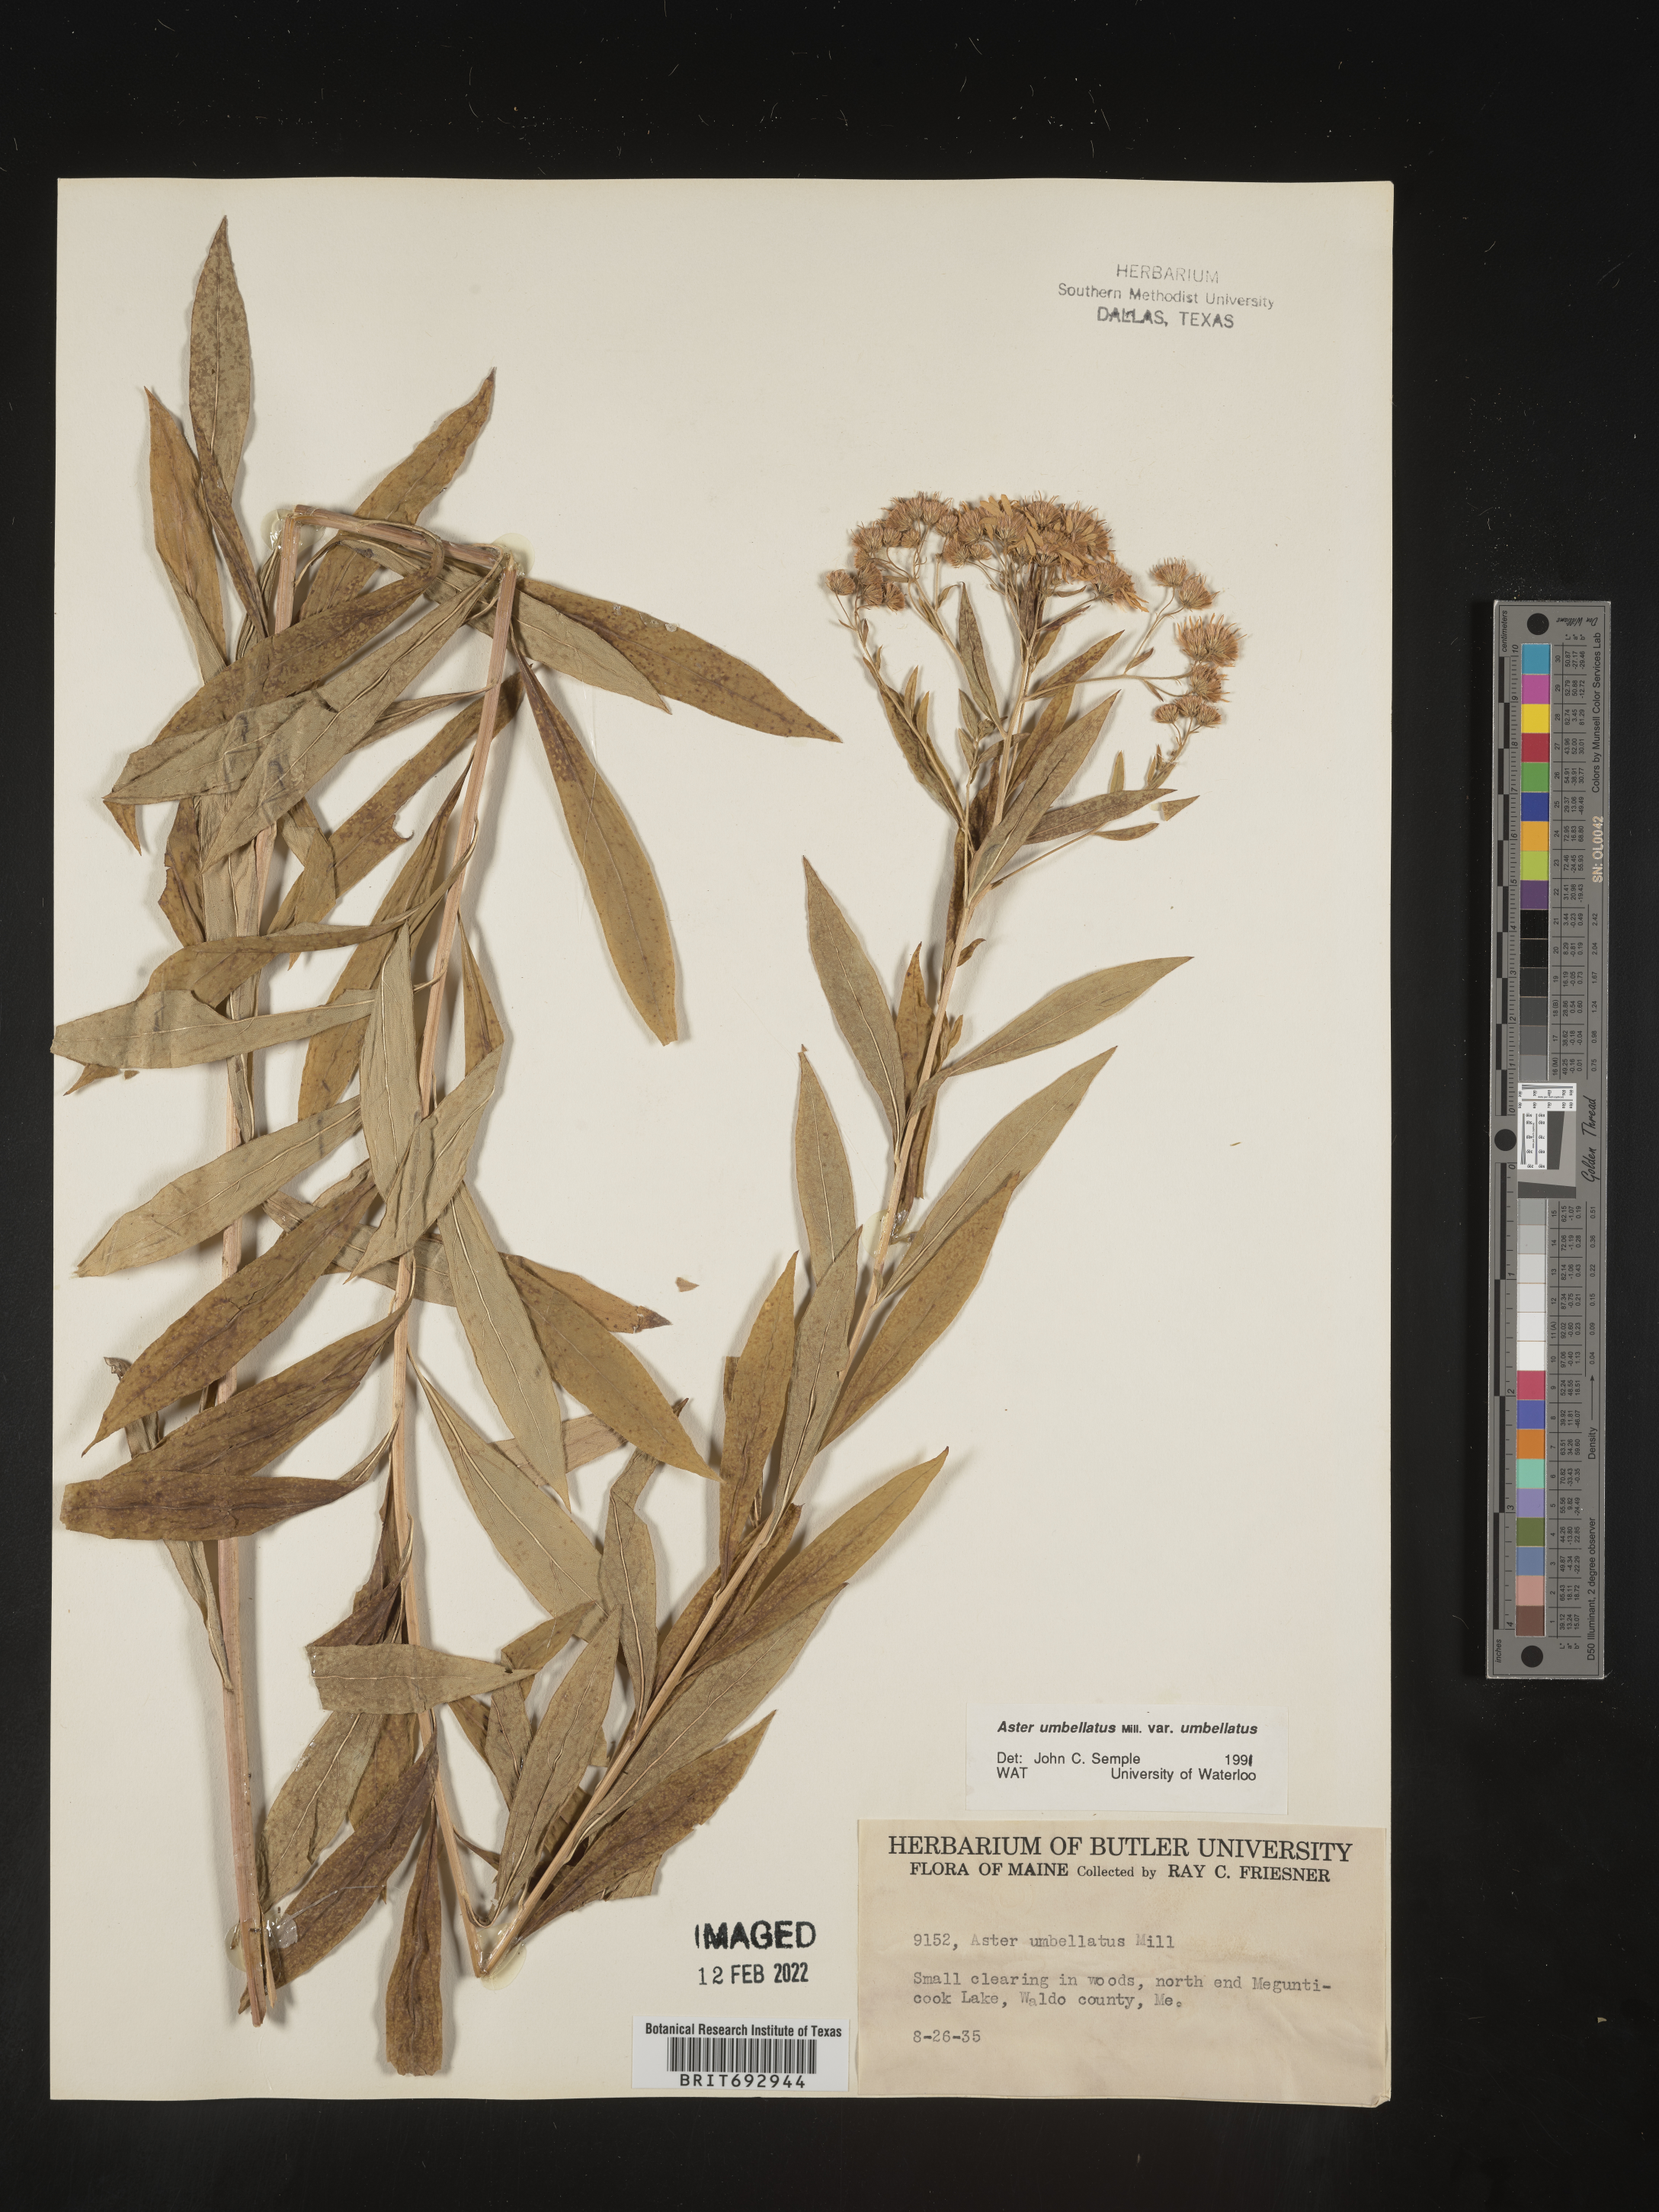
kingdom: Plantae
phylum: Tracheophyta
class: Magnoliopsida
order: Asterales
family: Asteraceae
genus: Doellingeria
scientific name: Doellingeria umbellata
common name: Flat-top white aster
